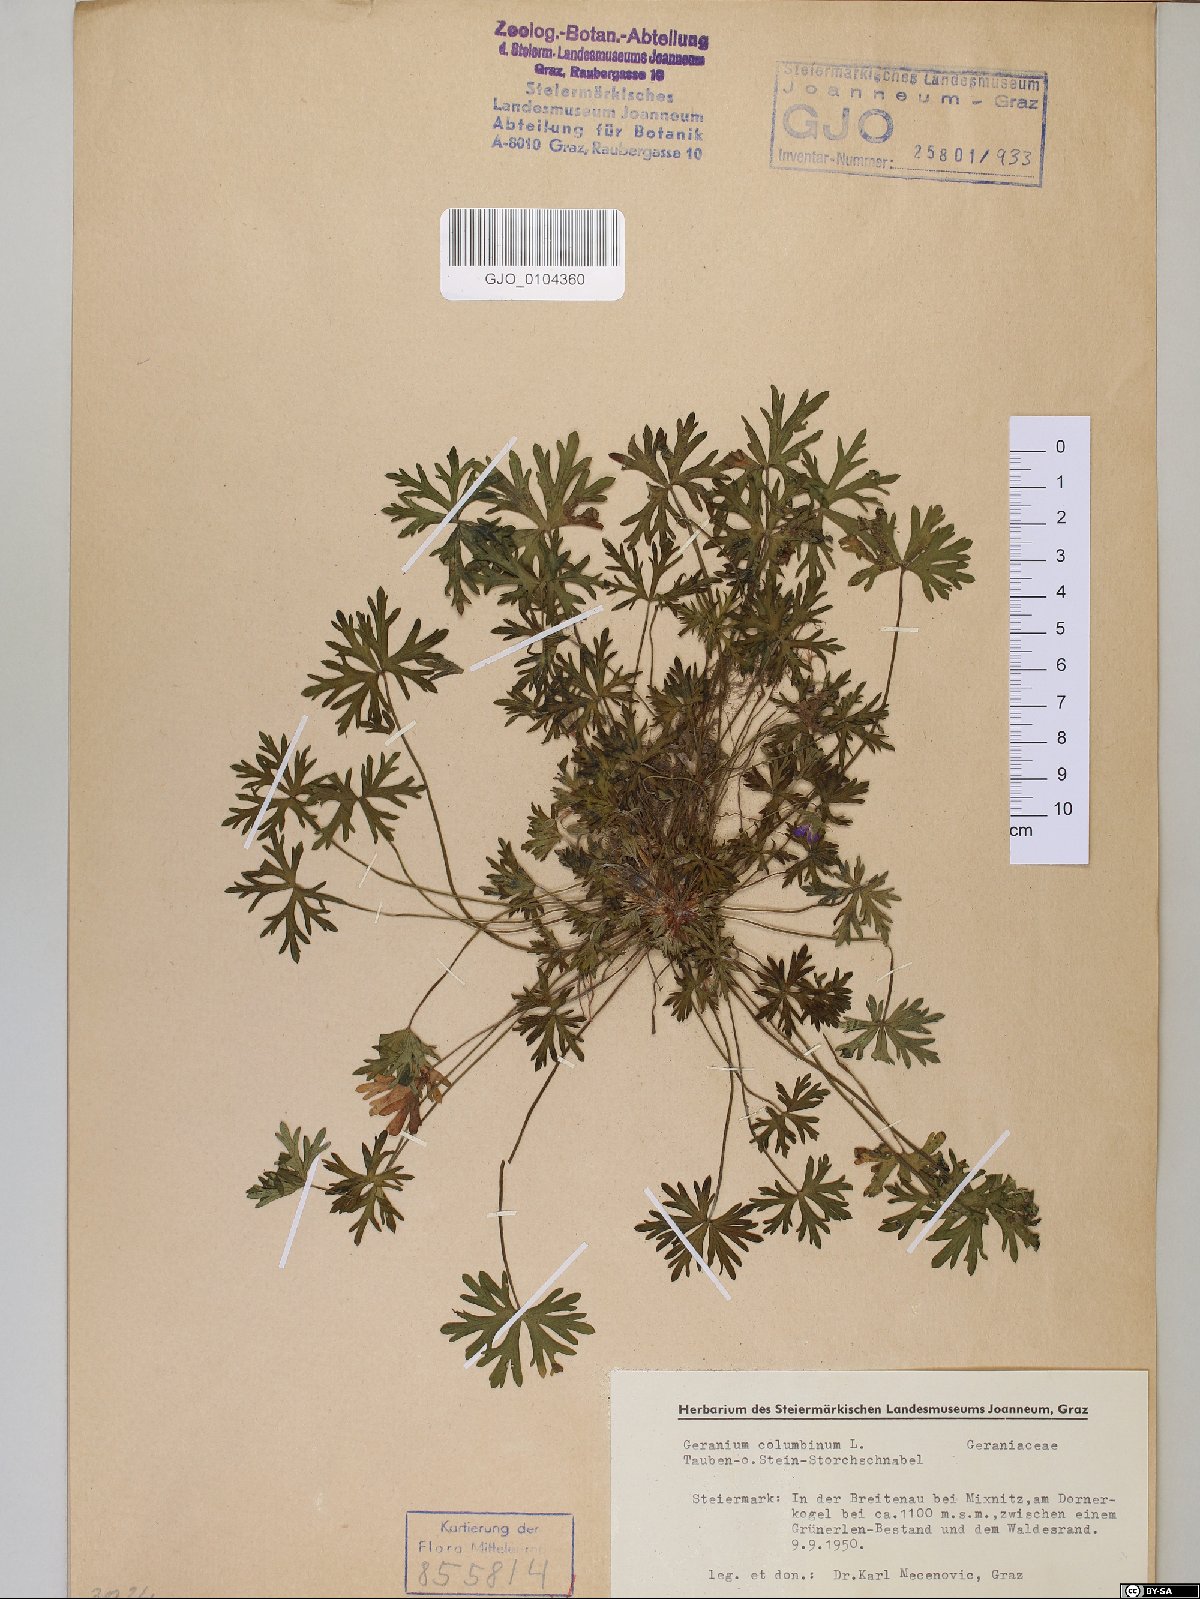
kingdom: Plantae
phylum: Tracheophyta
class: Magnoliopsida
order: Geraniales
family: Geraniaceae
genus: Geranium
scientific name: Geranium columbinum
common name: Long-stalked crane's-bill
